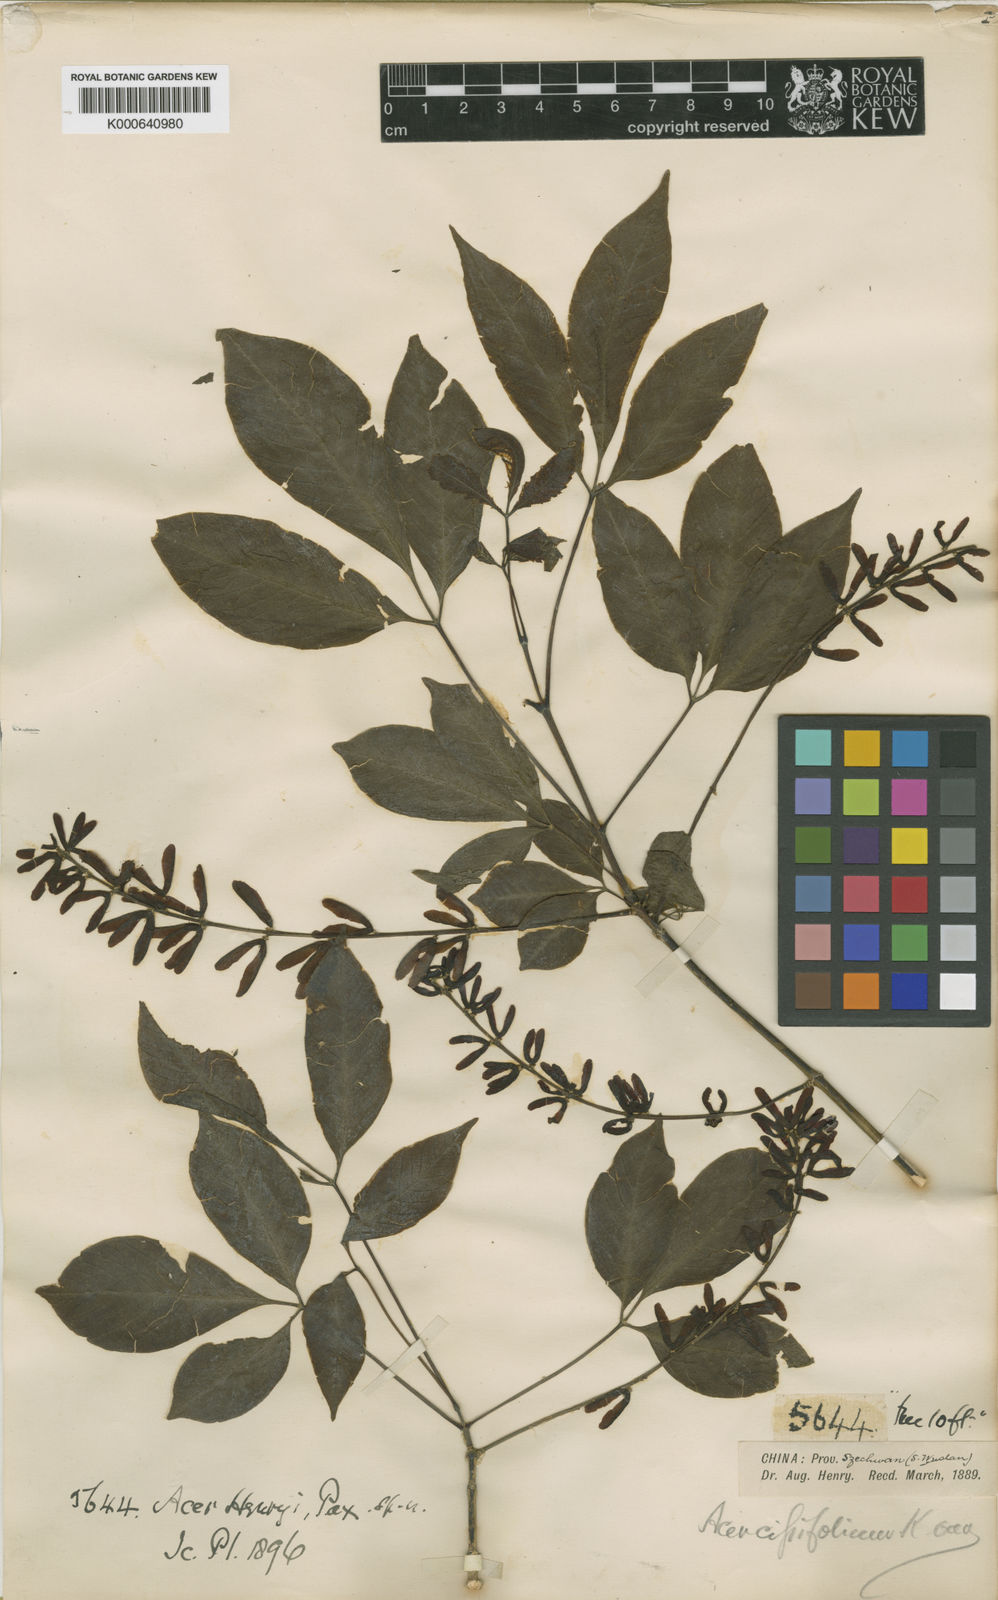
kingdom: Plantae
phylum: Tracheophyta
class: Magnoliopsida
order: Sapindales
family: Sapindaceae
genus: Acer
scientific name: Acer henryi
